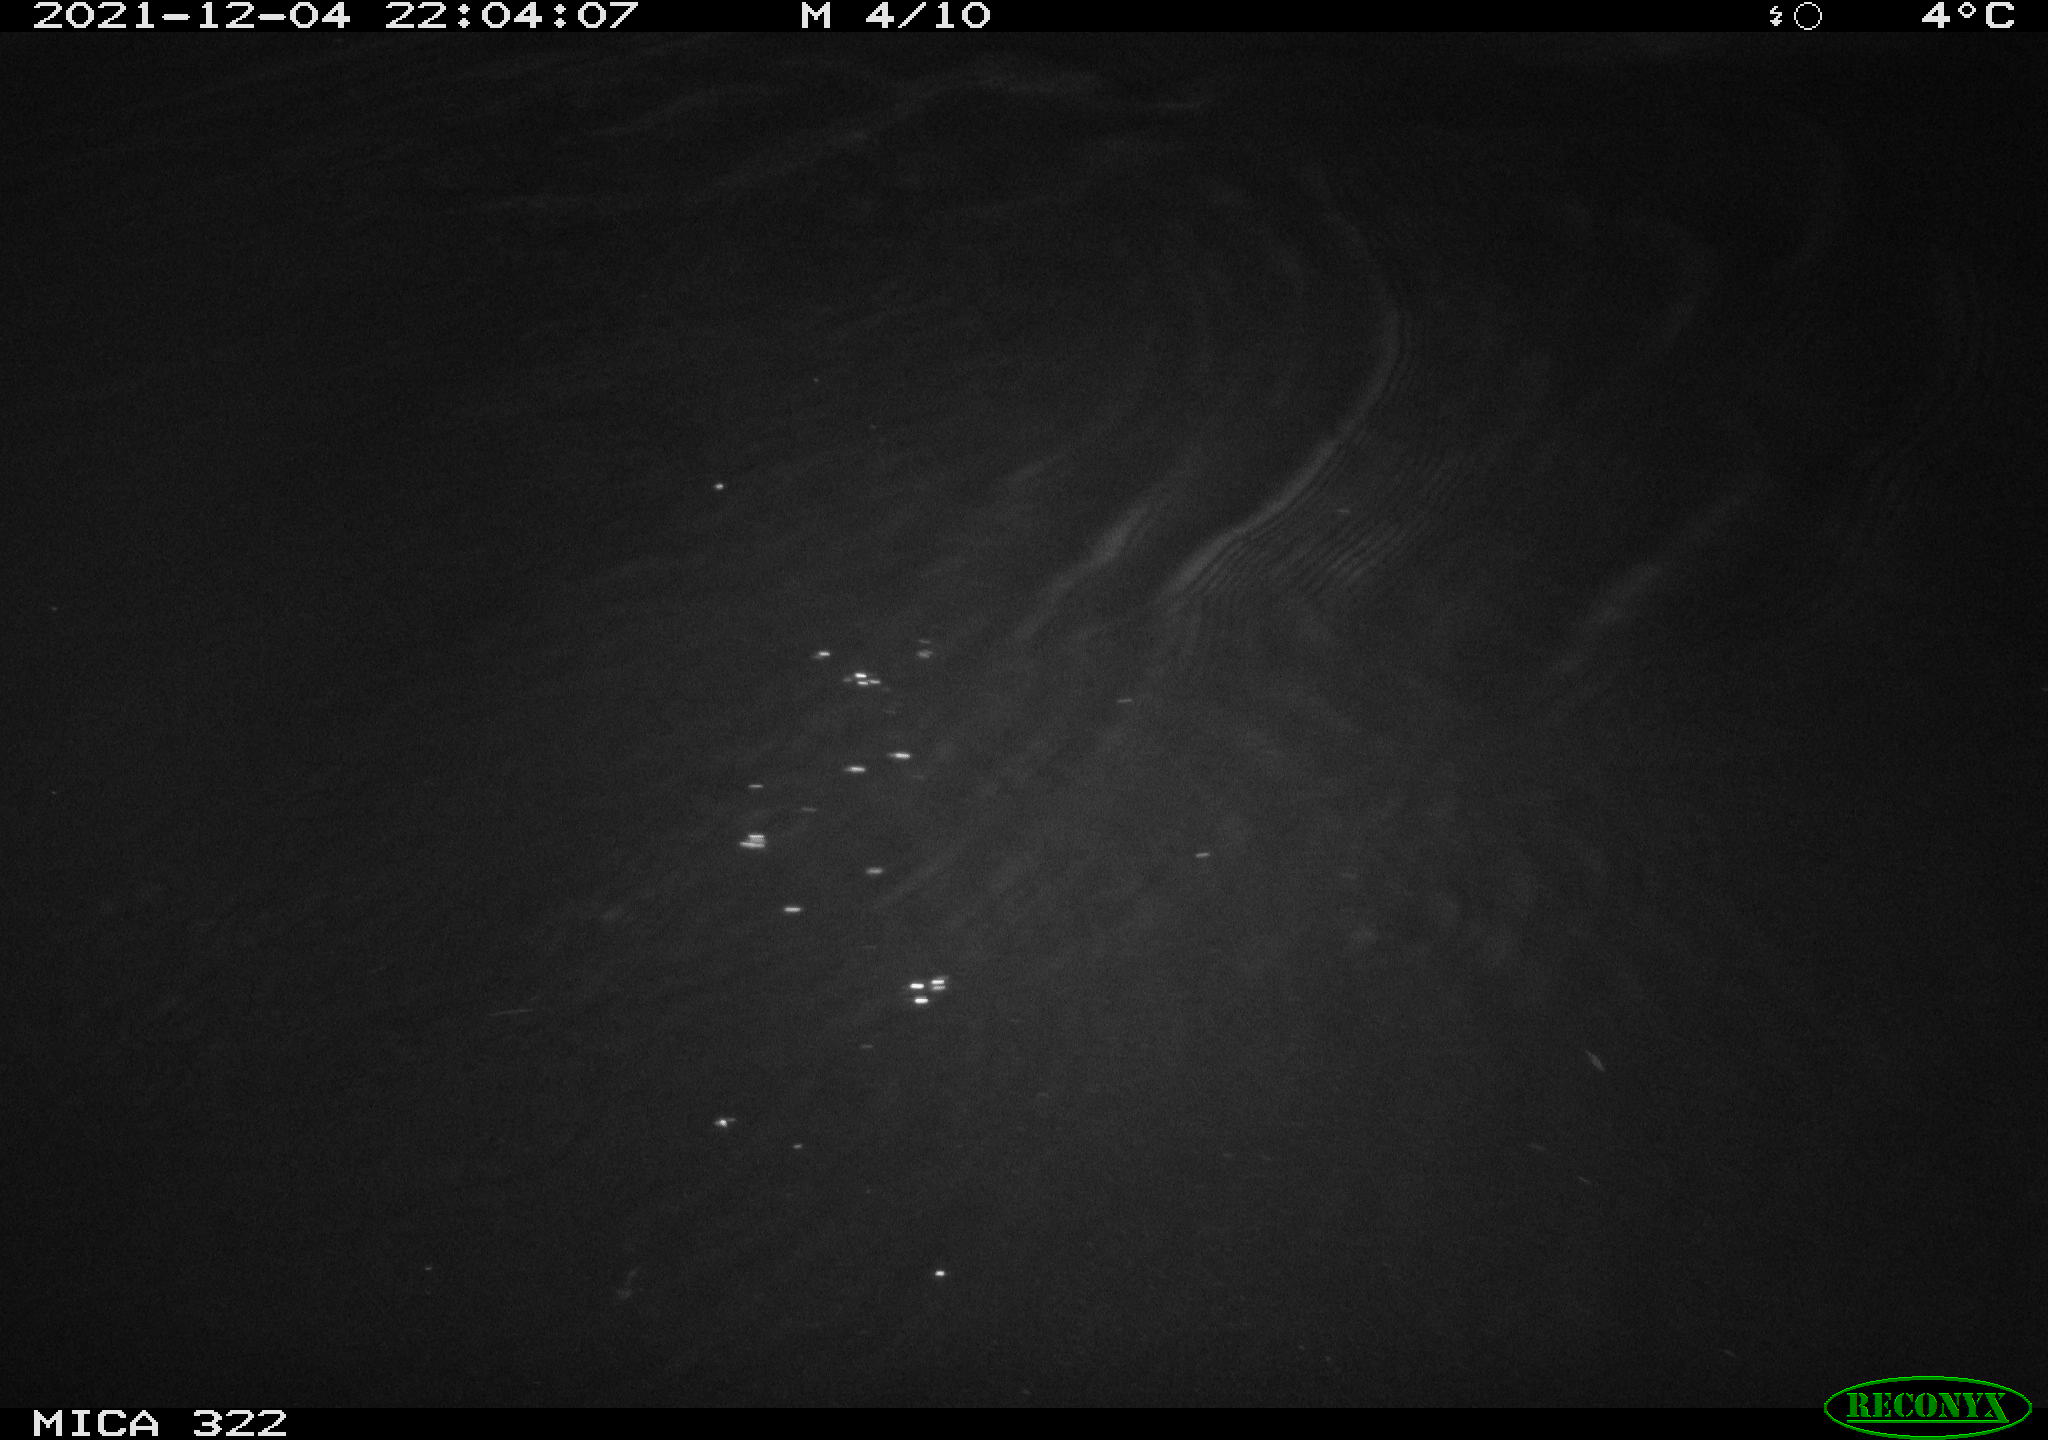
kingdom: Animalia
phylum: Chordata
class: Aves
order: Anseriformes
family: Anatidae
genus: Anas
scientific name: Anas
